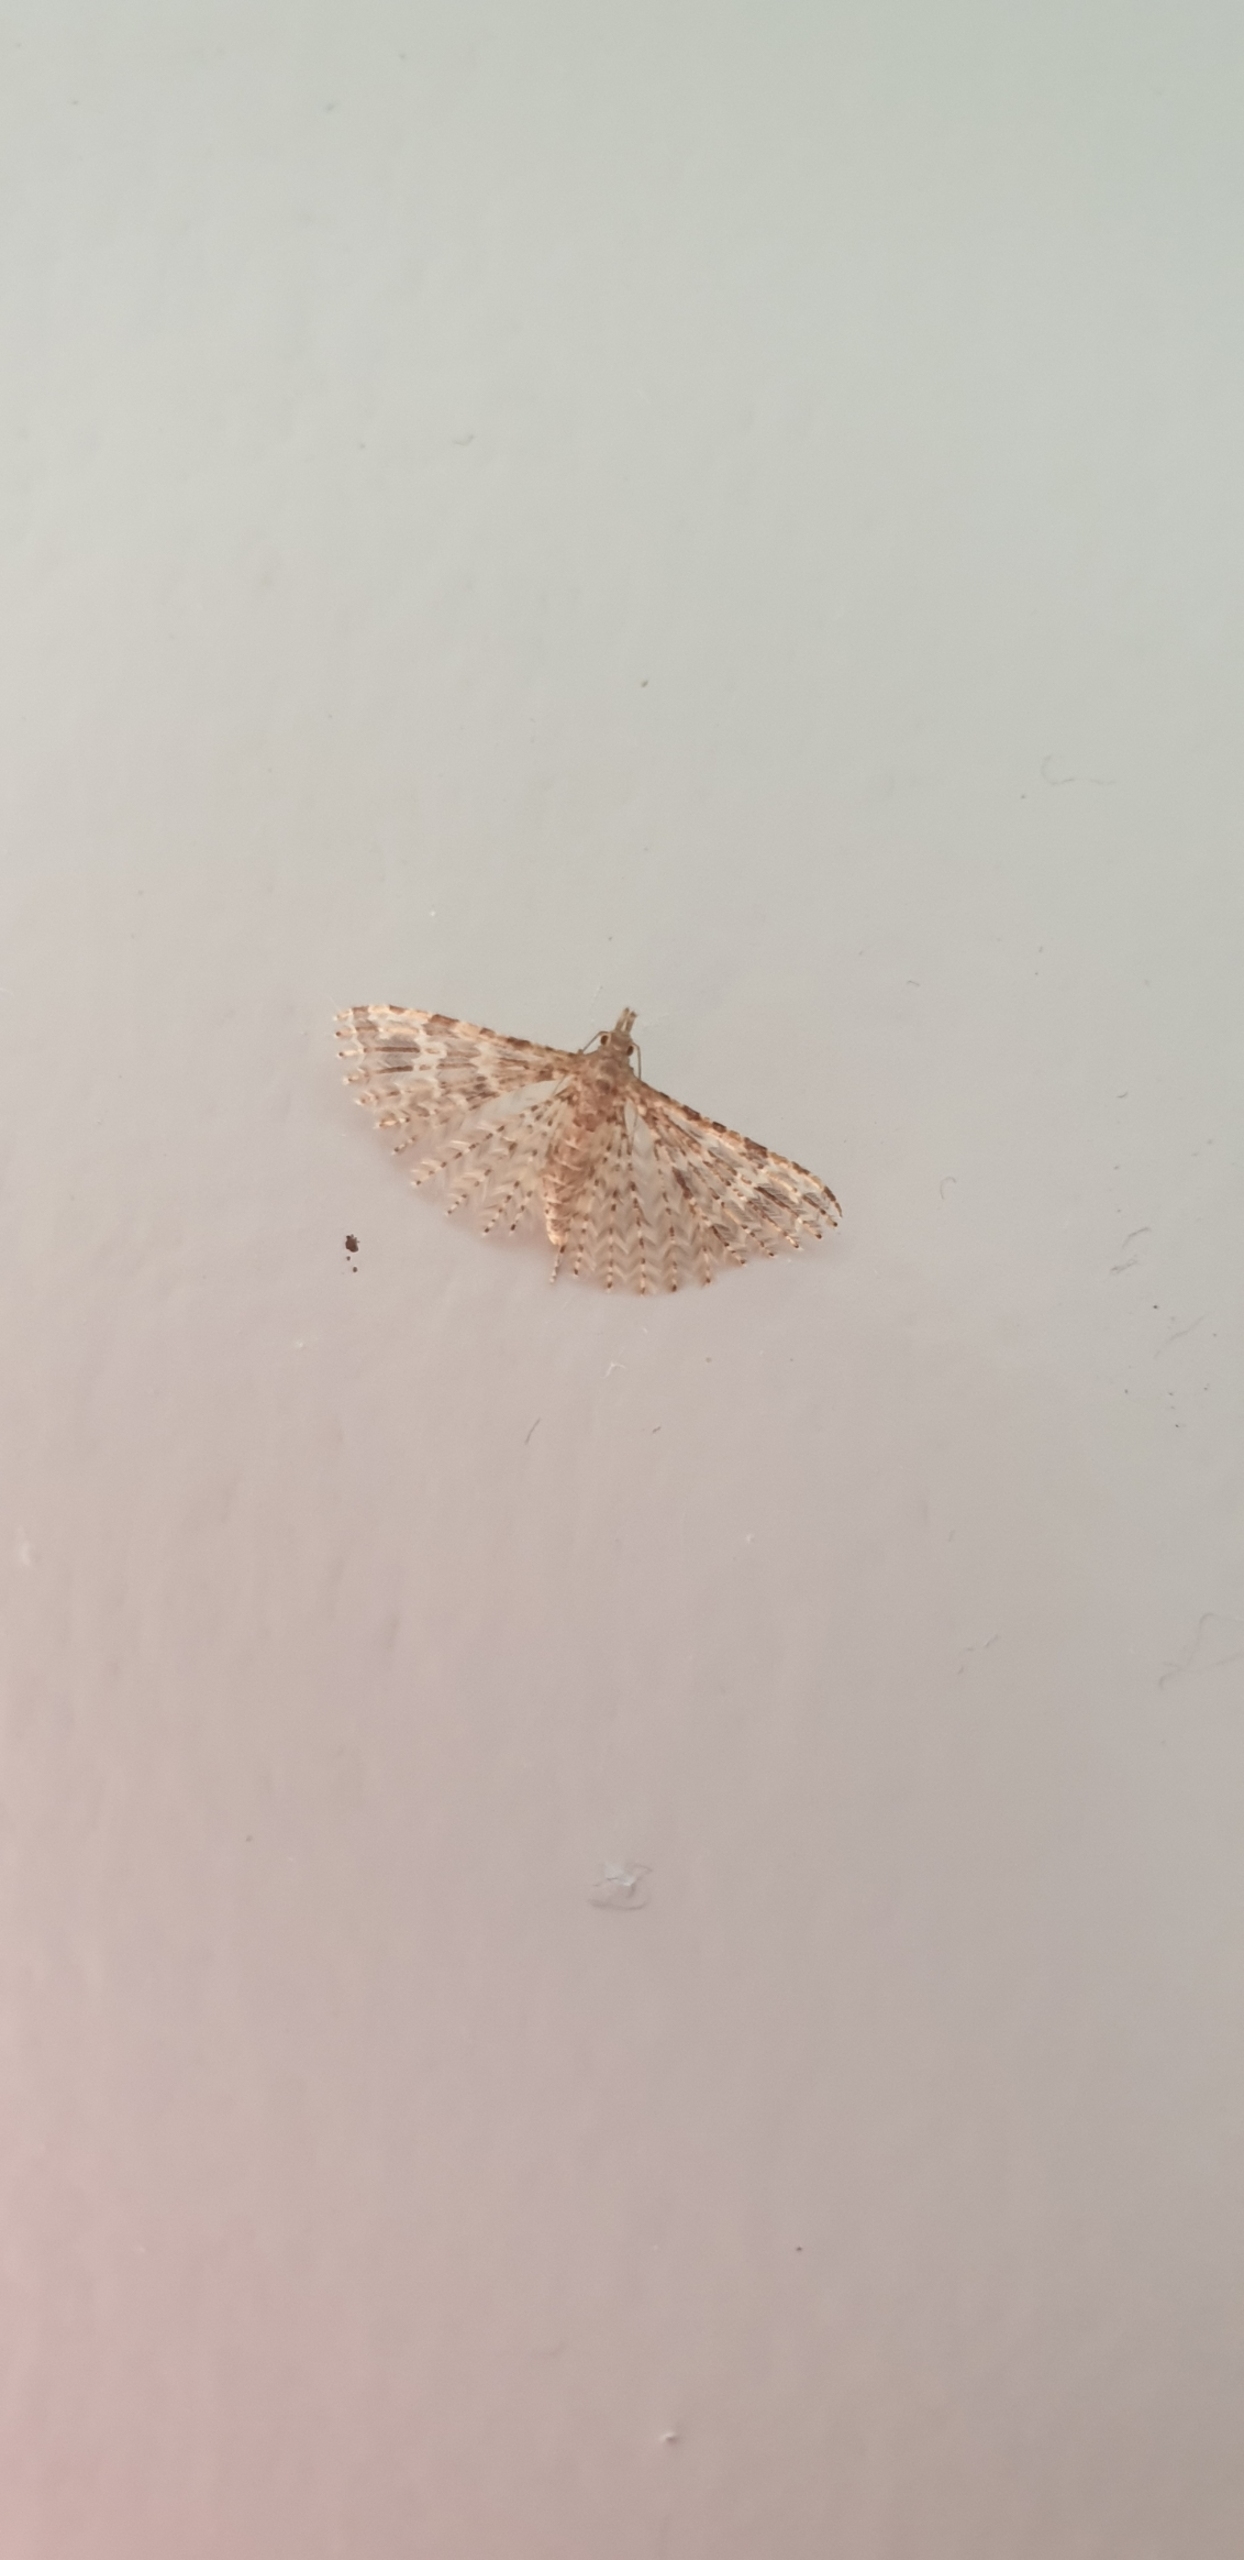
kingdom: Animalia
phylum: Arthropoda
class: Insecta
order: Lepidoptera
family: Alucitidae
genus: Alucita
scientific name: Alucita hexadactyla
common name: Kaprifoliefjermøl
